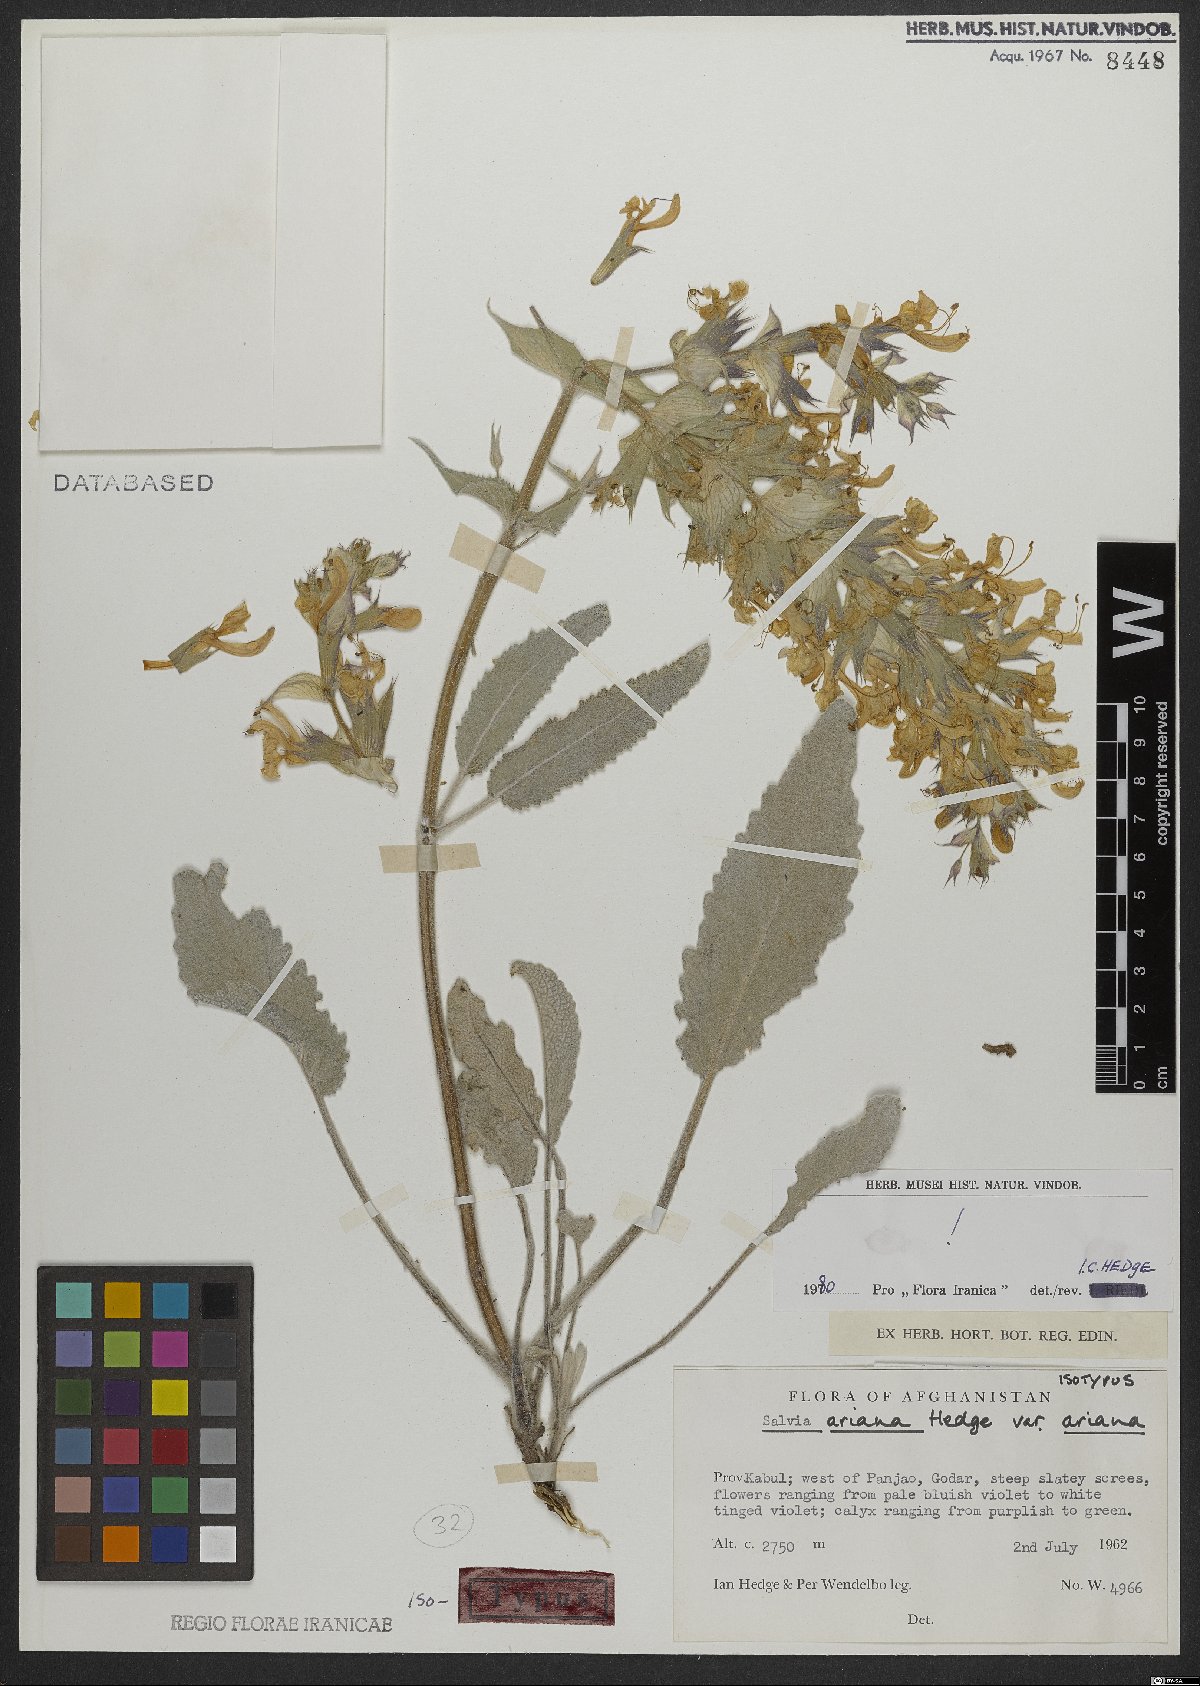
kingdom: Plantae
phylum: Tracheophyta
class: Magnoliopsida
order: Lamiales
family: Lamiaceae
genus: Salvia
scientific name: Salvia ariana
